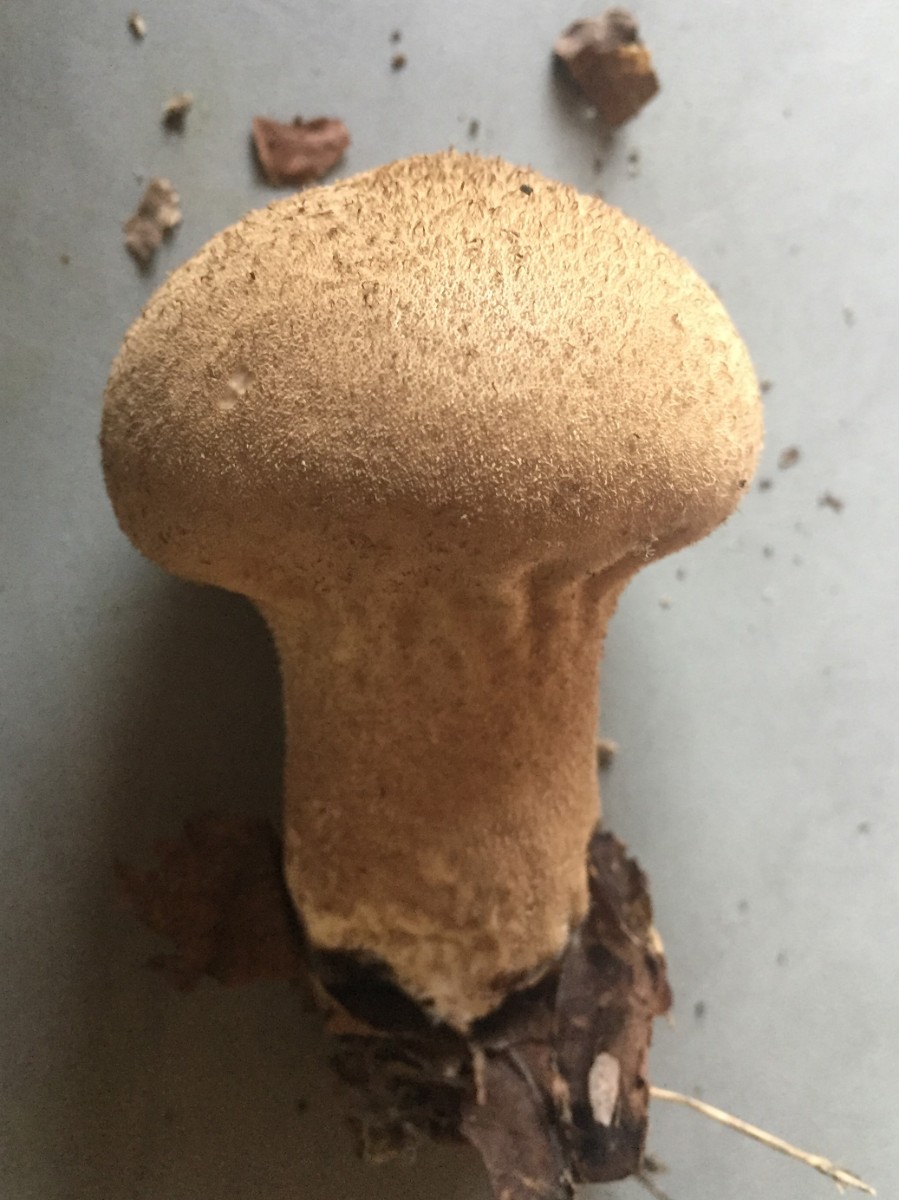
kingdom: Fungi
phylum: Basidiomycota
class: Agaricomycetes
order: Agaricales
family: Lycoperdaceae
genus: Lycoperdon
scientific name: Lycoperdon excipuliforme
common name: højstokket støvbold
